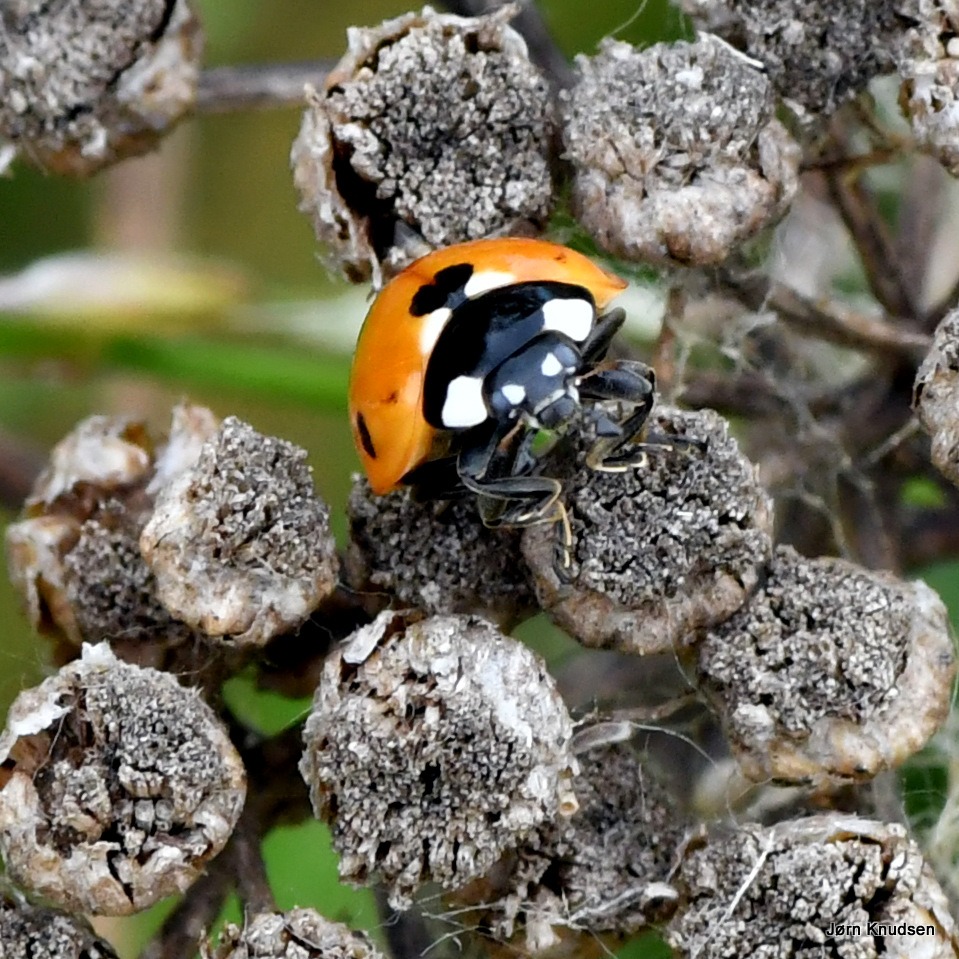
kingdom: Animalia
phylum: Arthropoda
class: Insecta
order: Coleoptera
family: Coccinellidae
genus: Coccinella
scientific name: Coccinella septempunctata
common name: Syvplettet mariehøne
